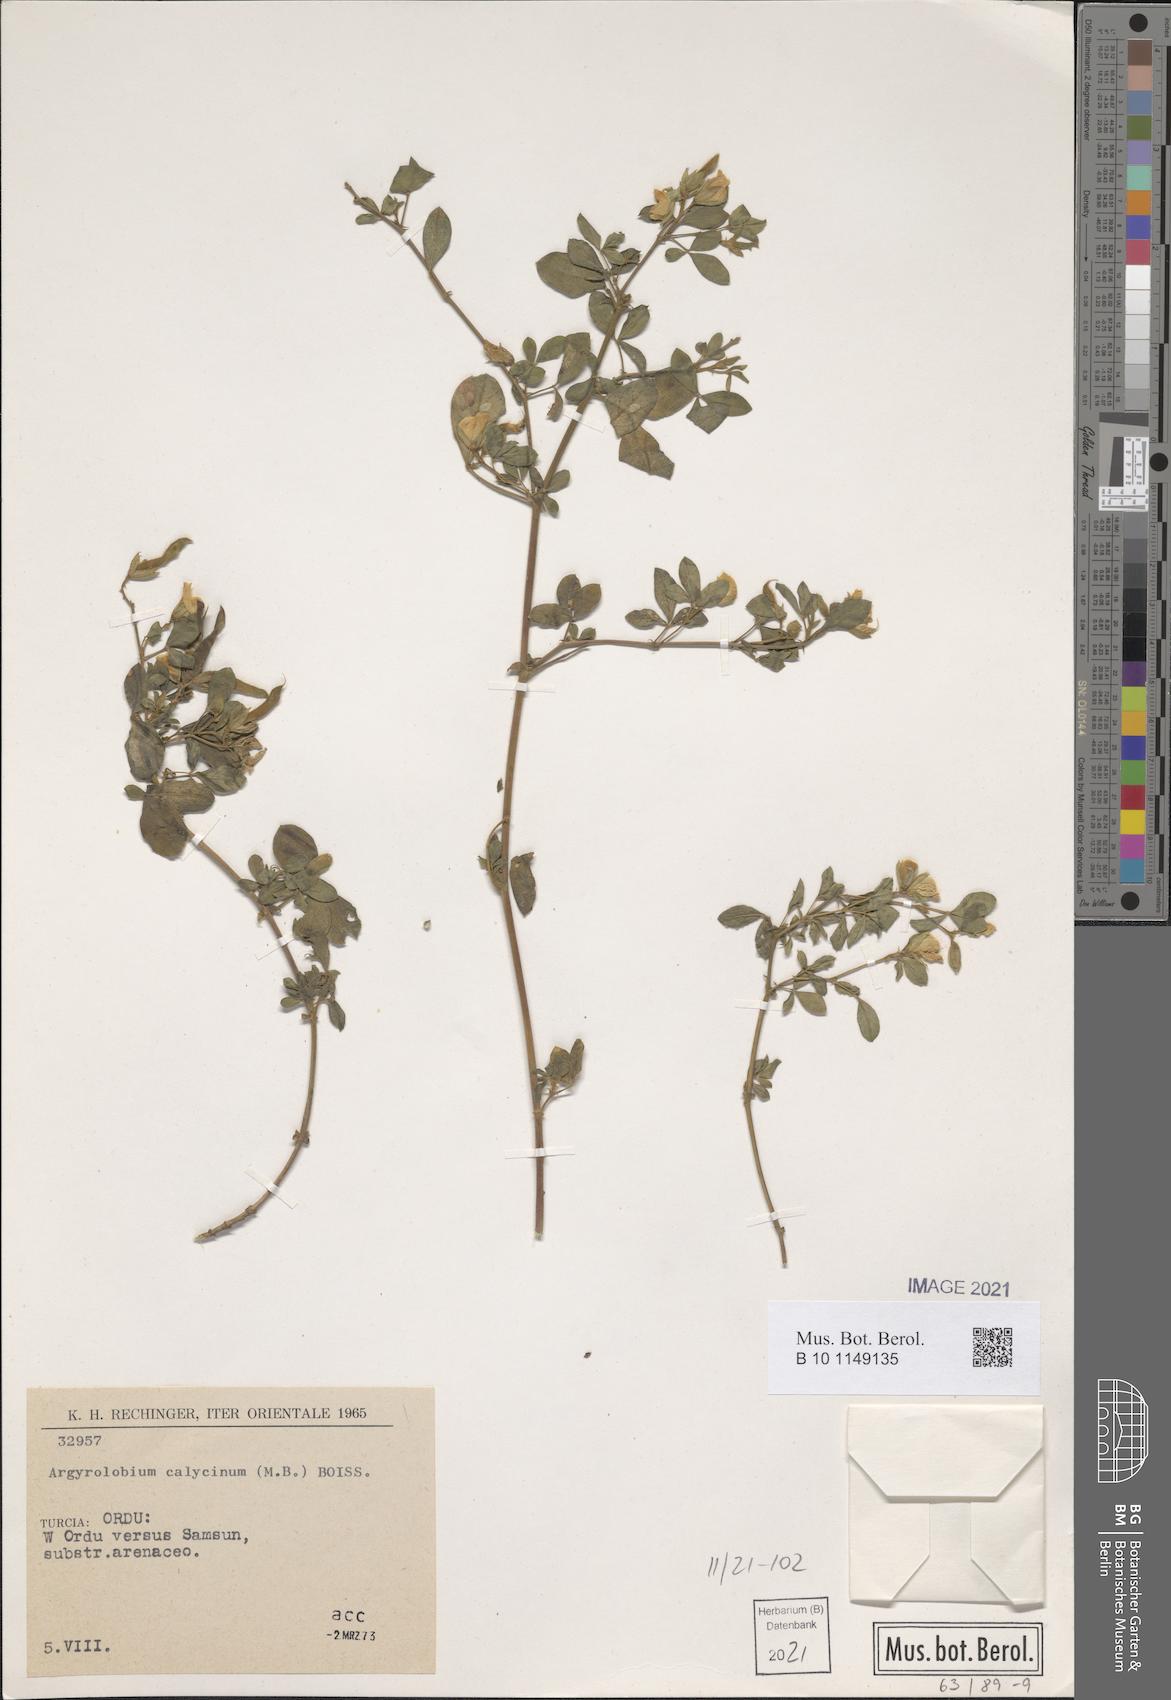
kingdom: Plantae
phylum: Tracheophyta
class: Magnoliopsida
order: Fabales
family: Fabaceae
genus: Argyrolobium
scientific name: Argyrolobium biebersteinii
